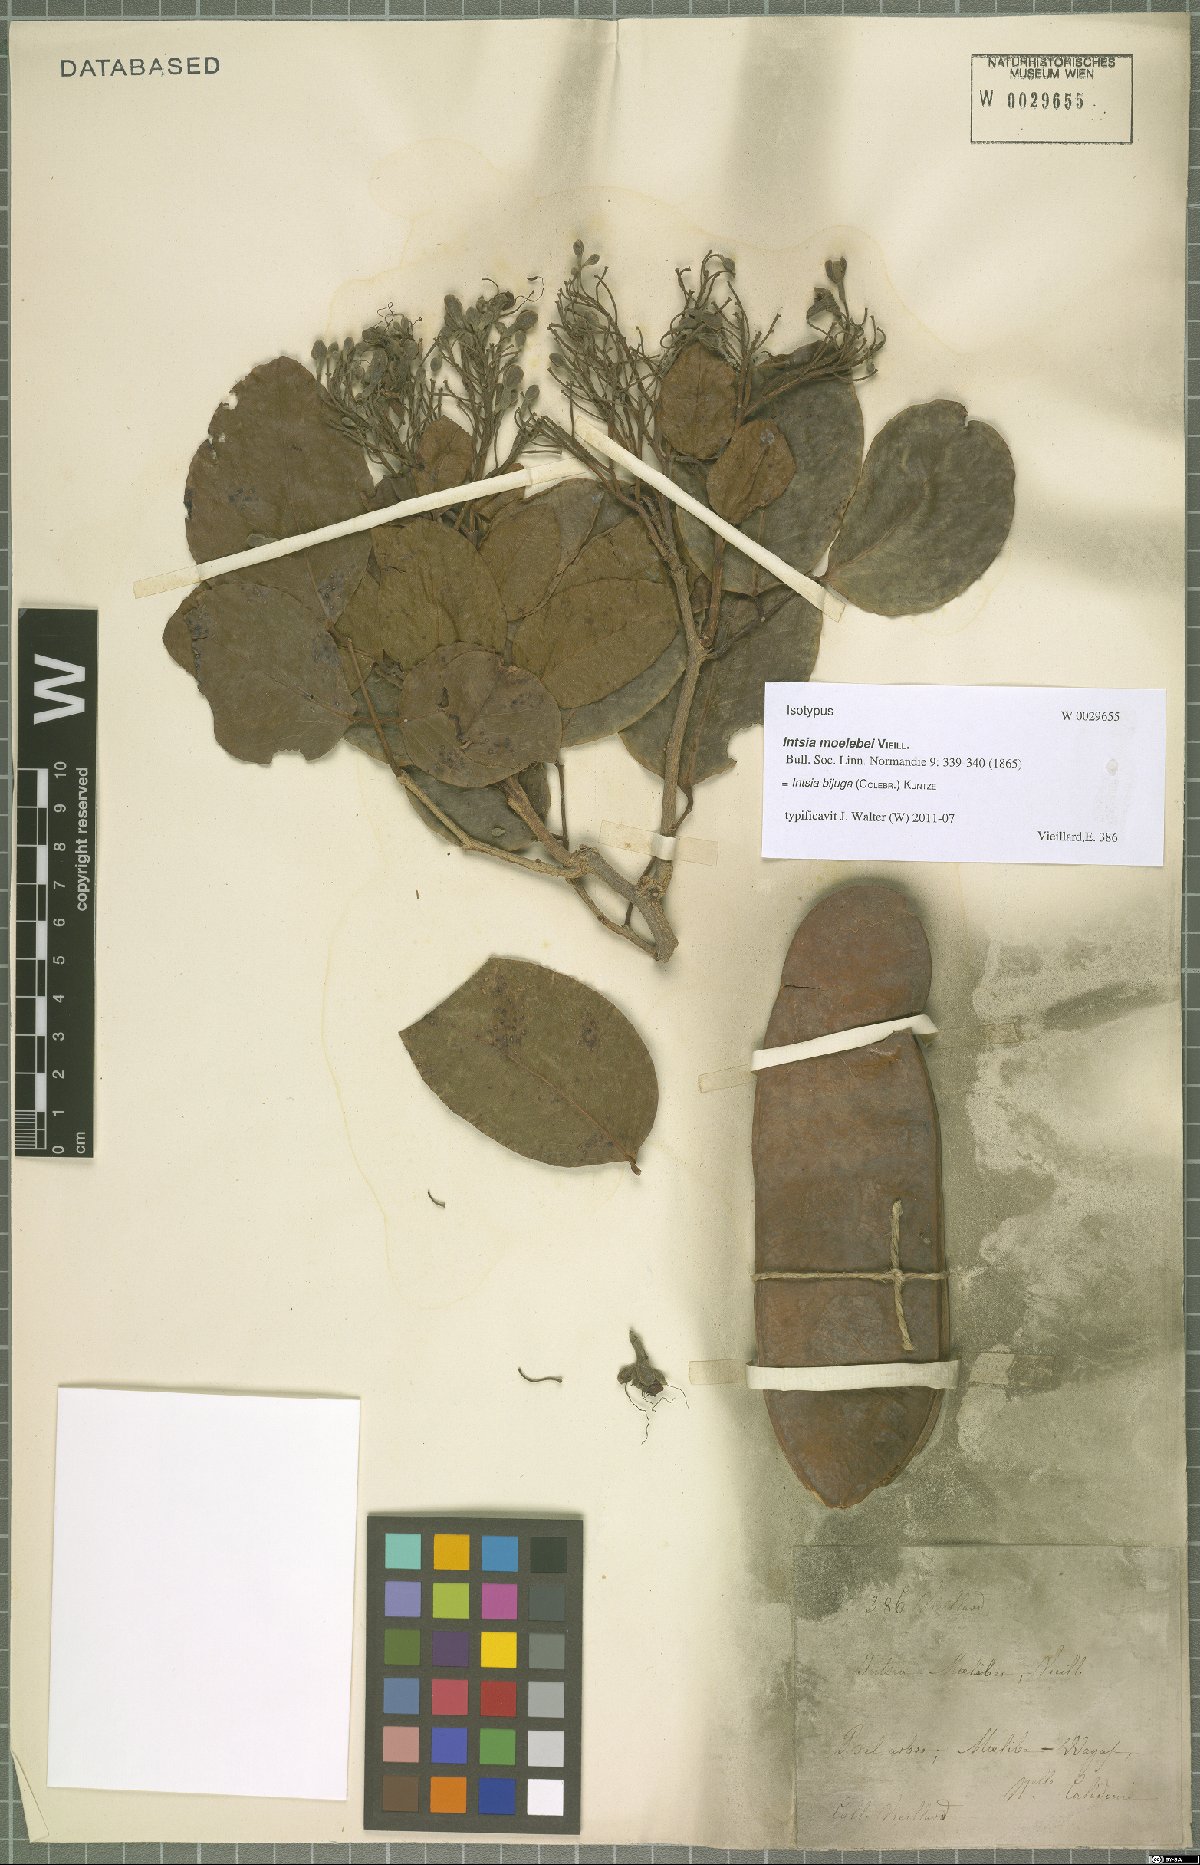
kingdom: Plantae
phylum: Tracheophyta
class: Magnoliopsida
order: Fabales
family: Fabaceae
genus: Intsia
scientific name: Intsia bijuga
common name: Moluccan ironwood
